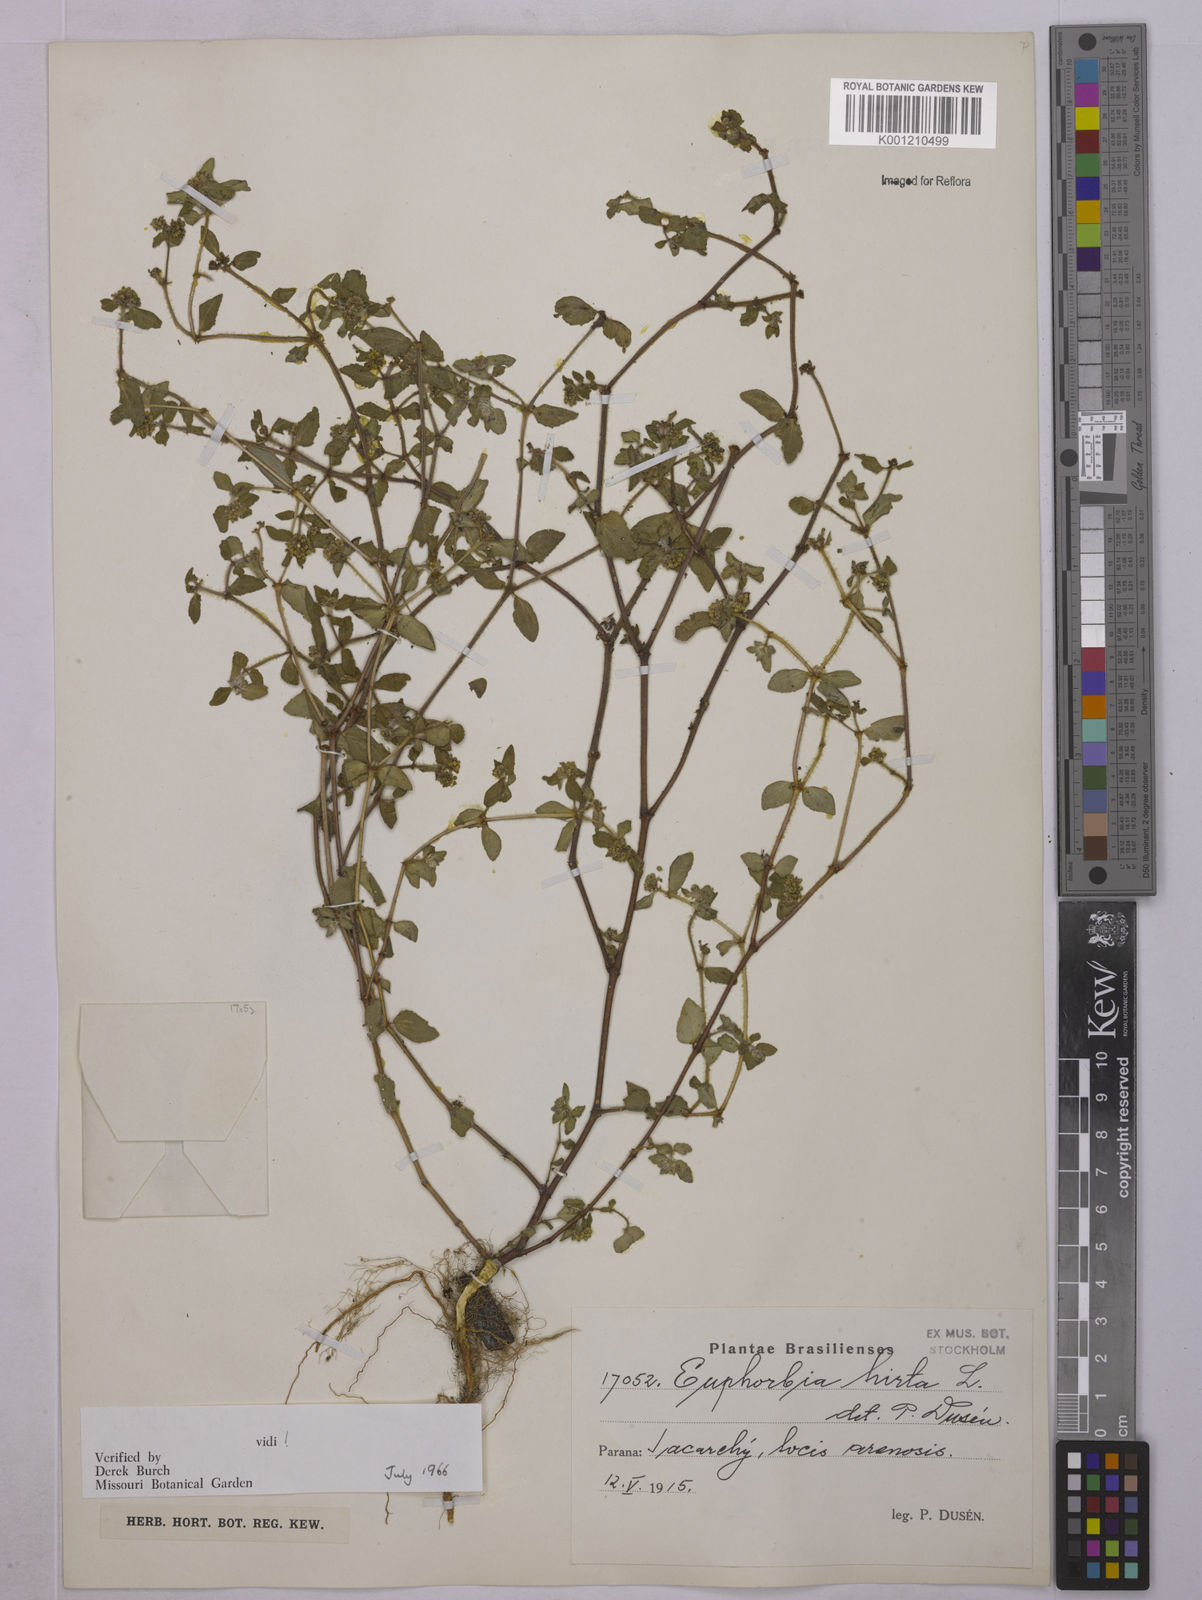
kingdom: Plantae
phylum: Tracheophyta
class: Magnoliopsida
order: Malpighiales
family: Euphorbiaceae
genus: Euphorbia
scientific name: Euphorbia hirta
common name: Pillpod sandmat
